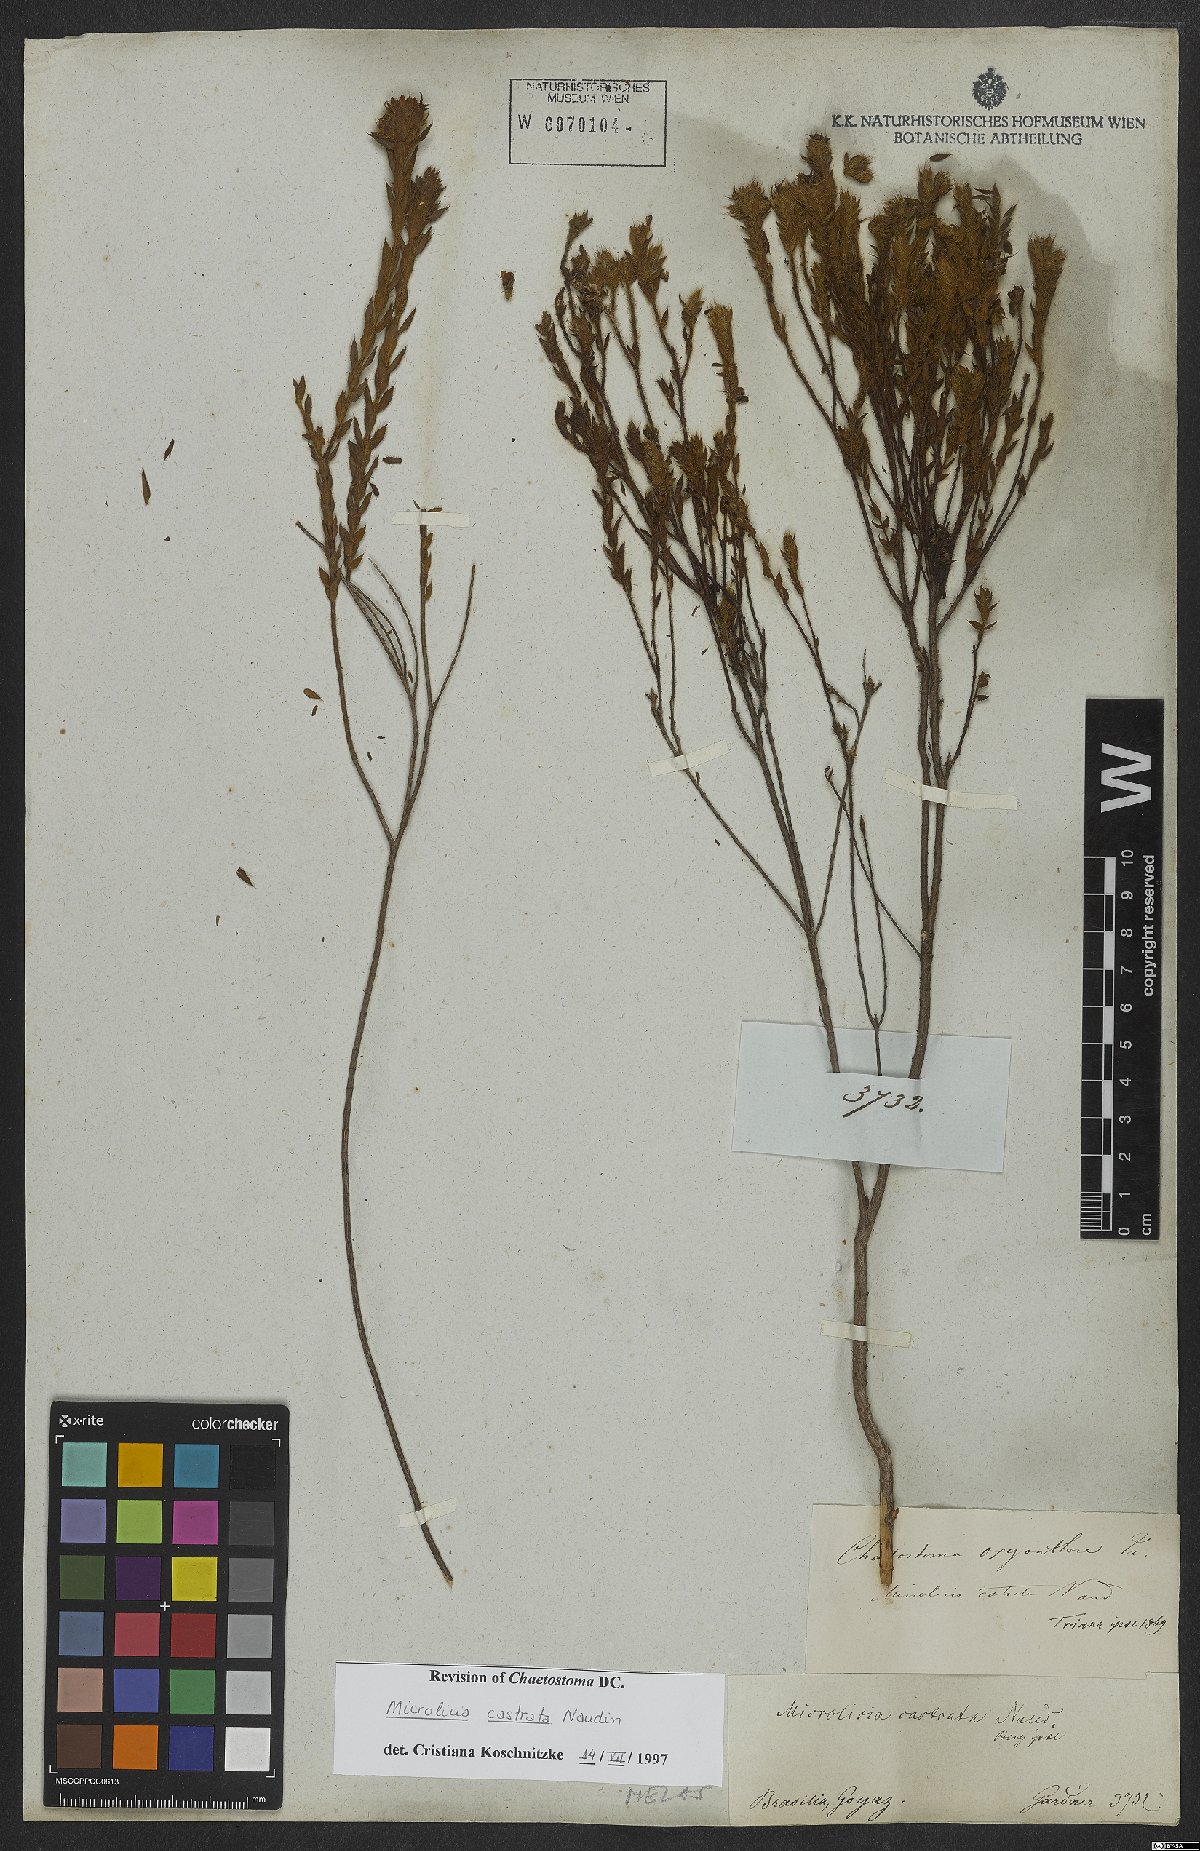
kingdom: Plantae
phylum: Tracheophyta
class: Magnoliopsida
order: Myrtales
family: Melastomataceae
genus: Microlicia
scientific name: Microlicia castrata
